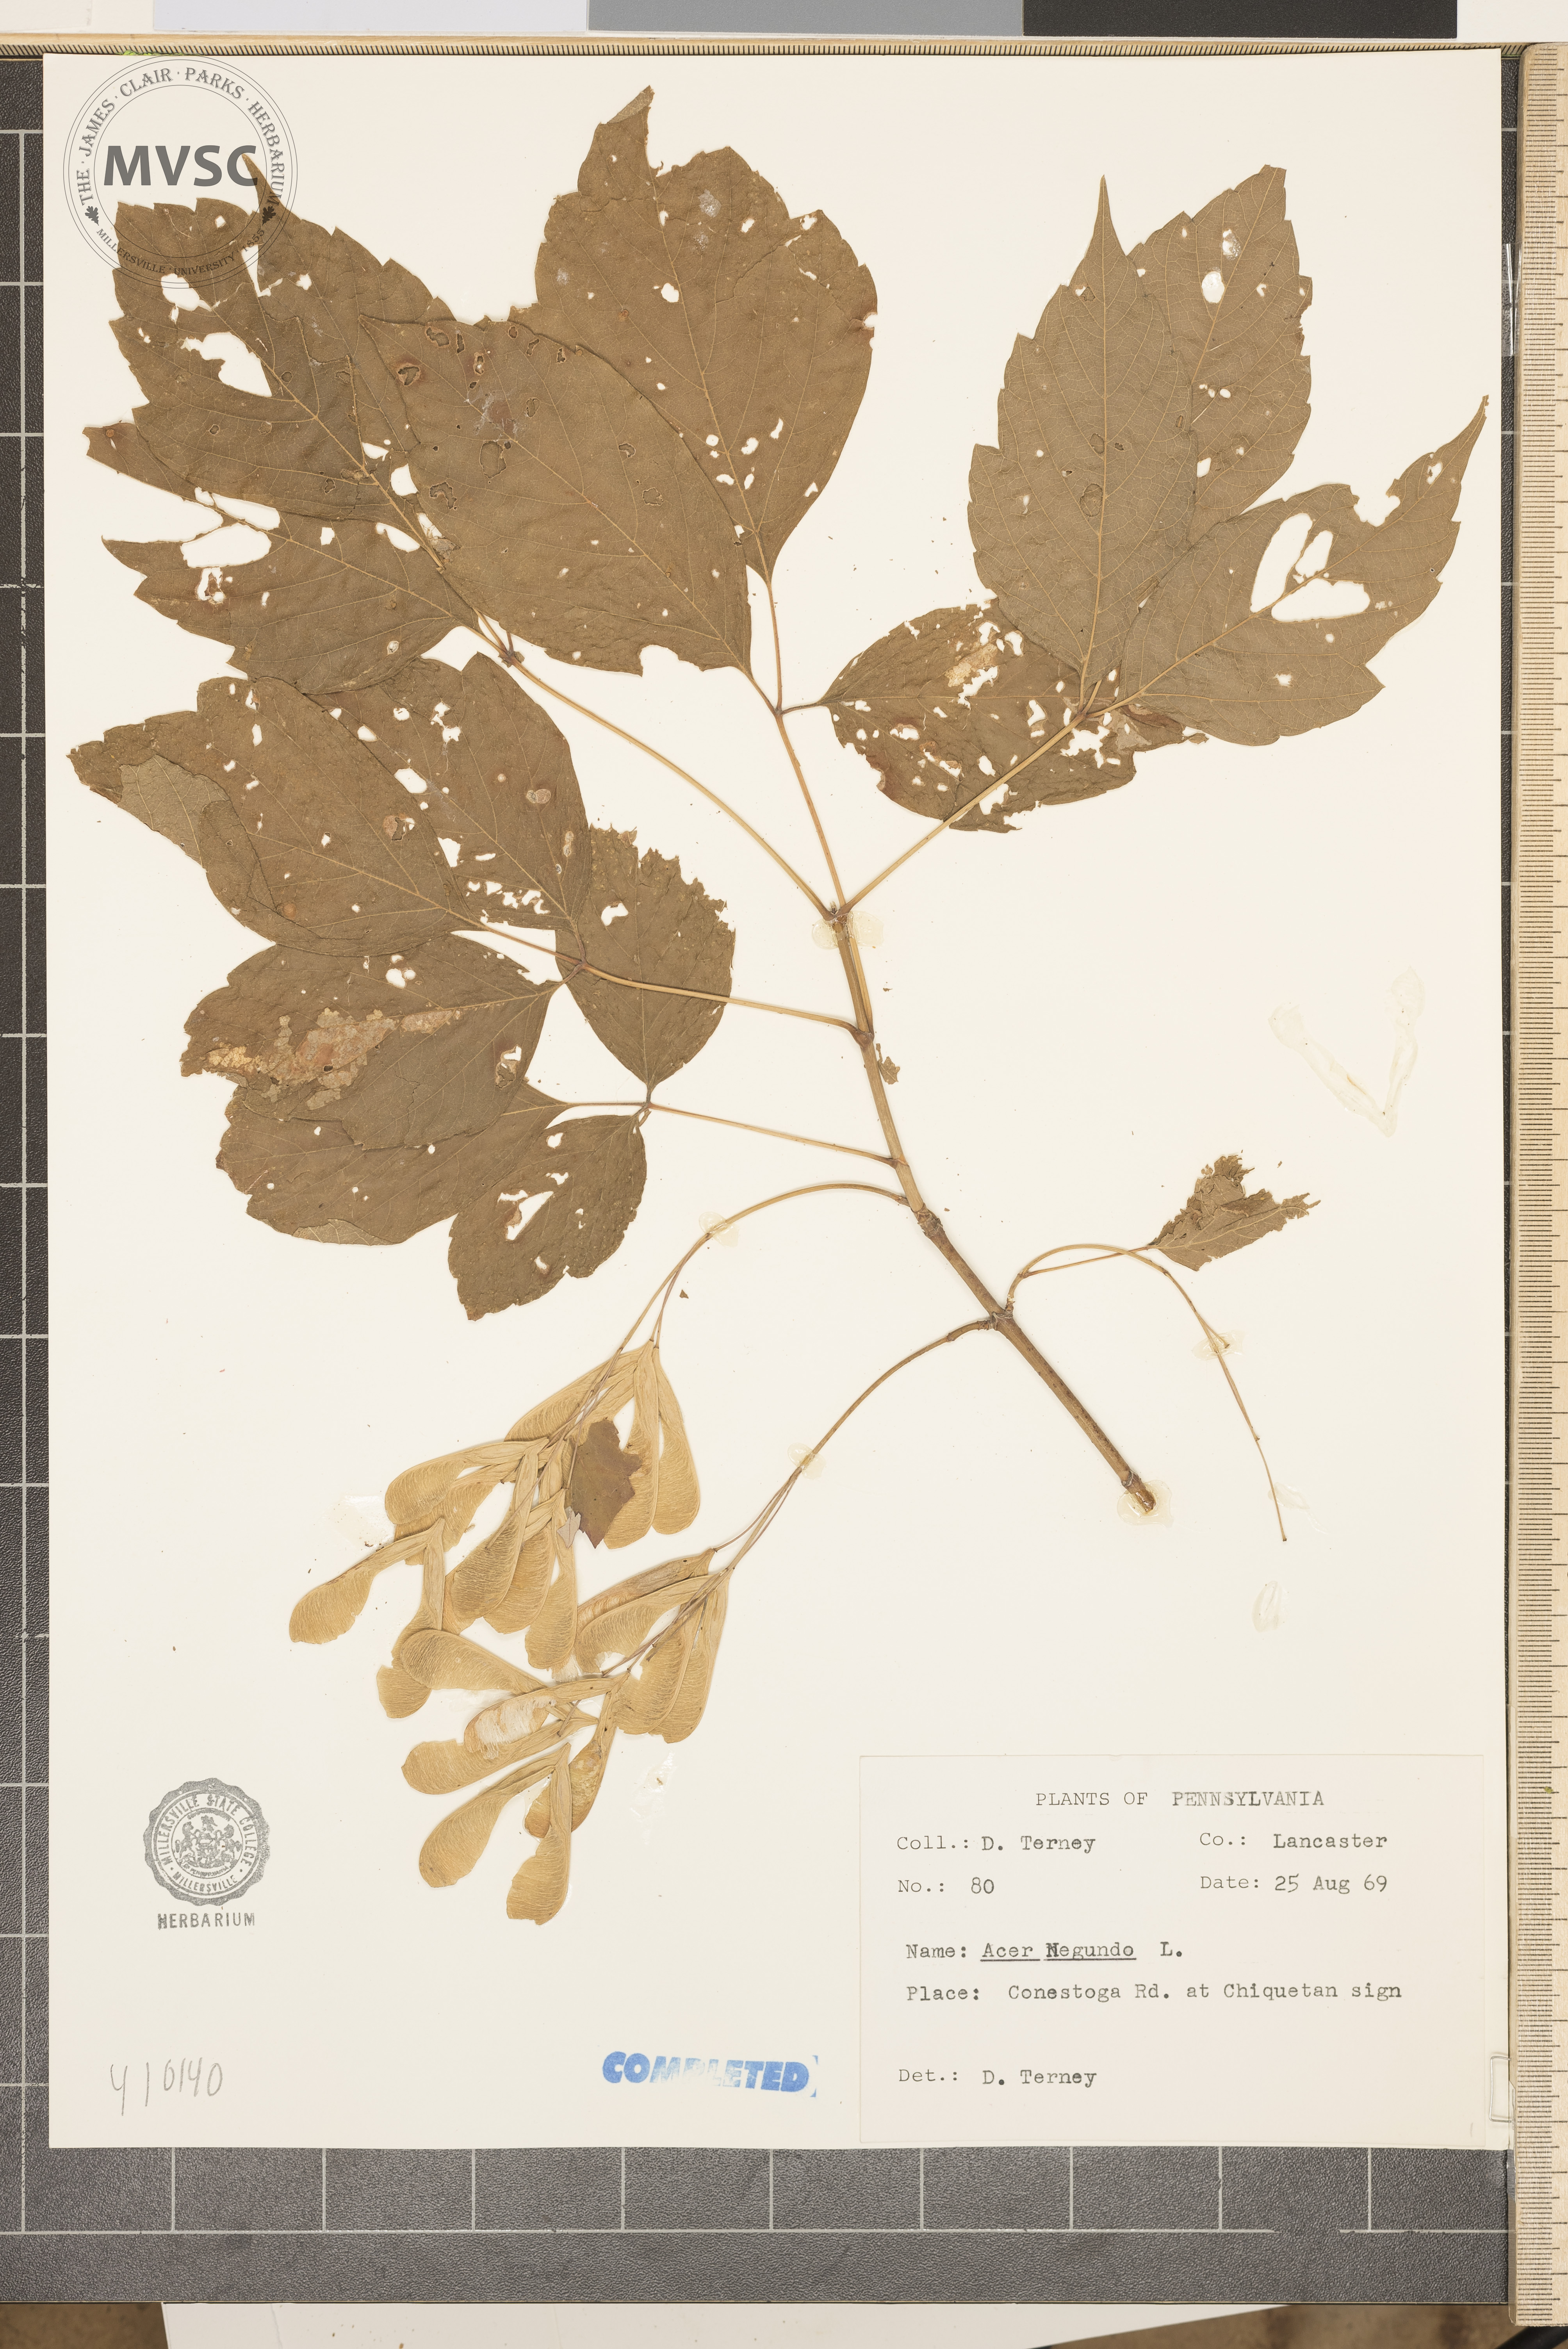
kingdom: Plantae
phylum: Tracheophyta
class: Magnoliopsida
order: Sapindales
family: Sapindaceae
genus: Acer
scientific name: Acer negundo
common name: Ashleaf maple
